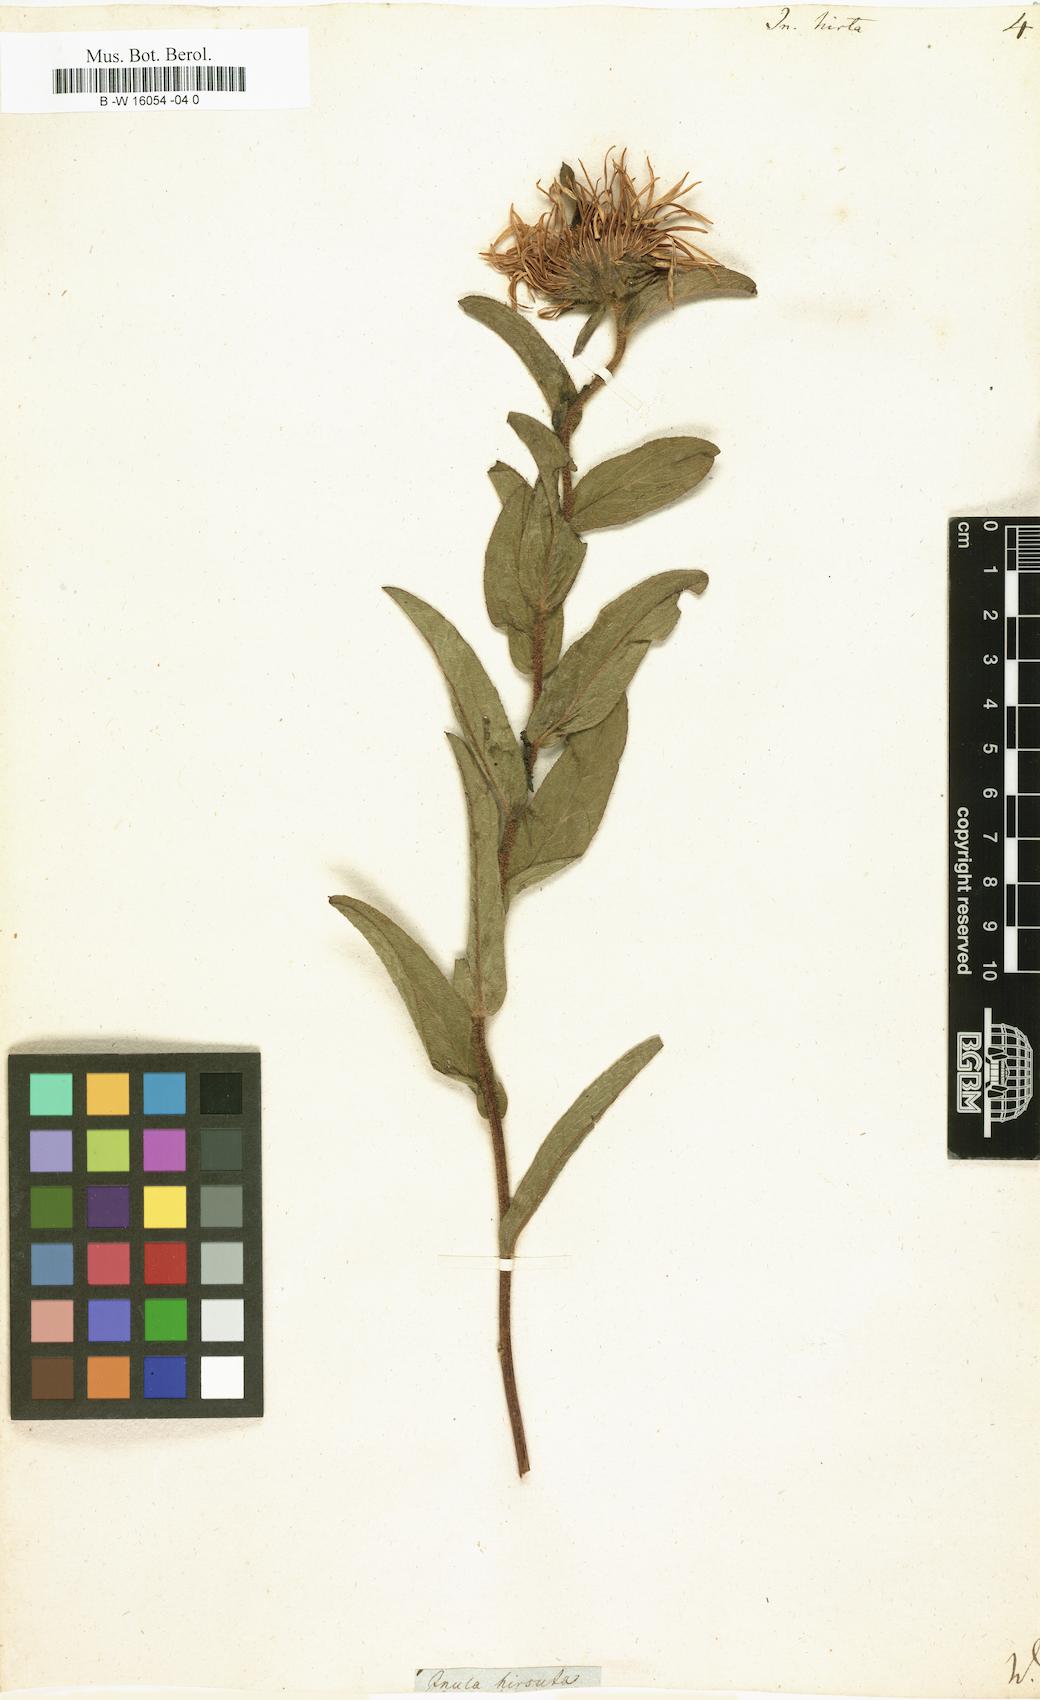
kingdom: Plantae
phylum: Tracheophyta
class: Magnoliopsida
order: Asterales
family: Asteraceae
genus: Pentanema
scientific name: Pentanema hirtum
